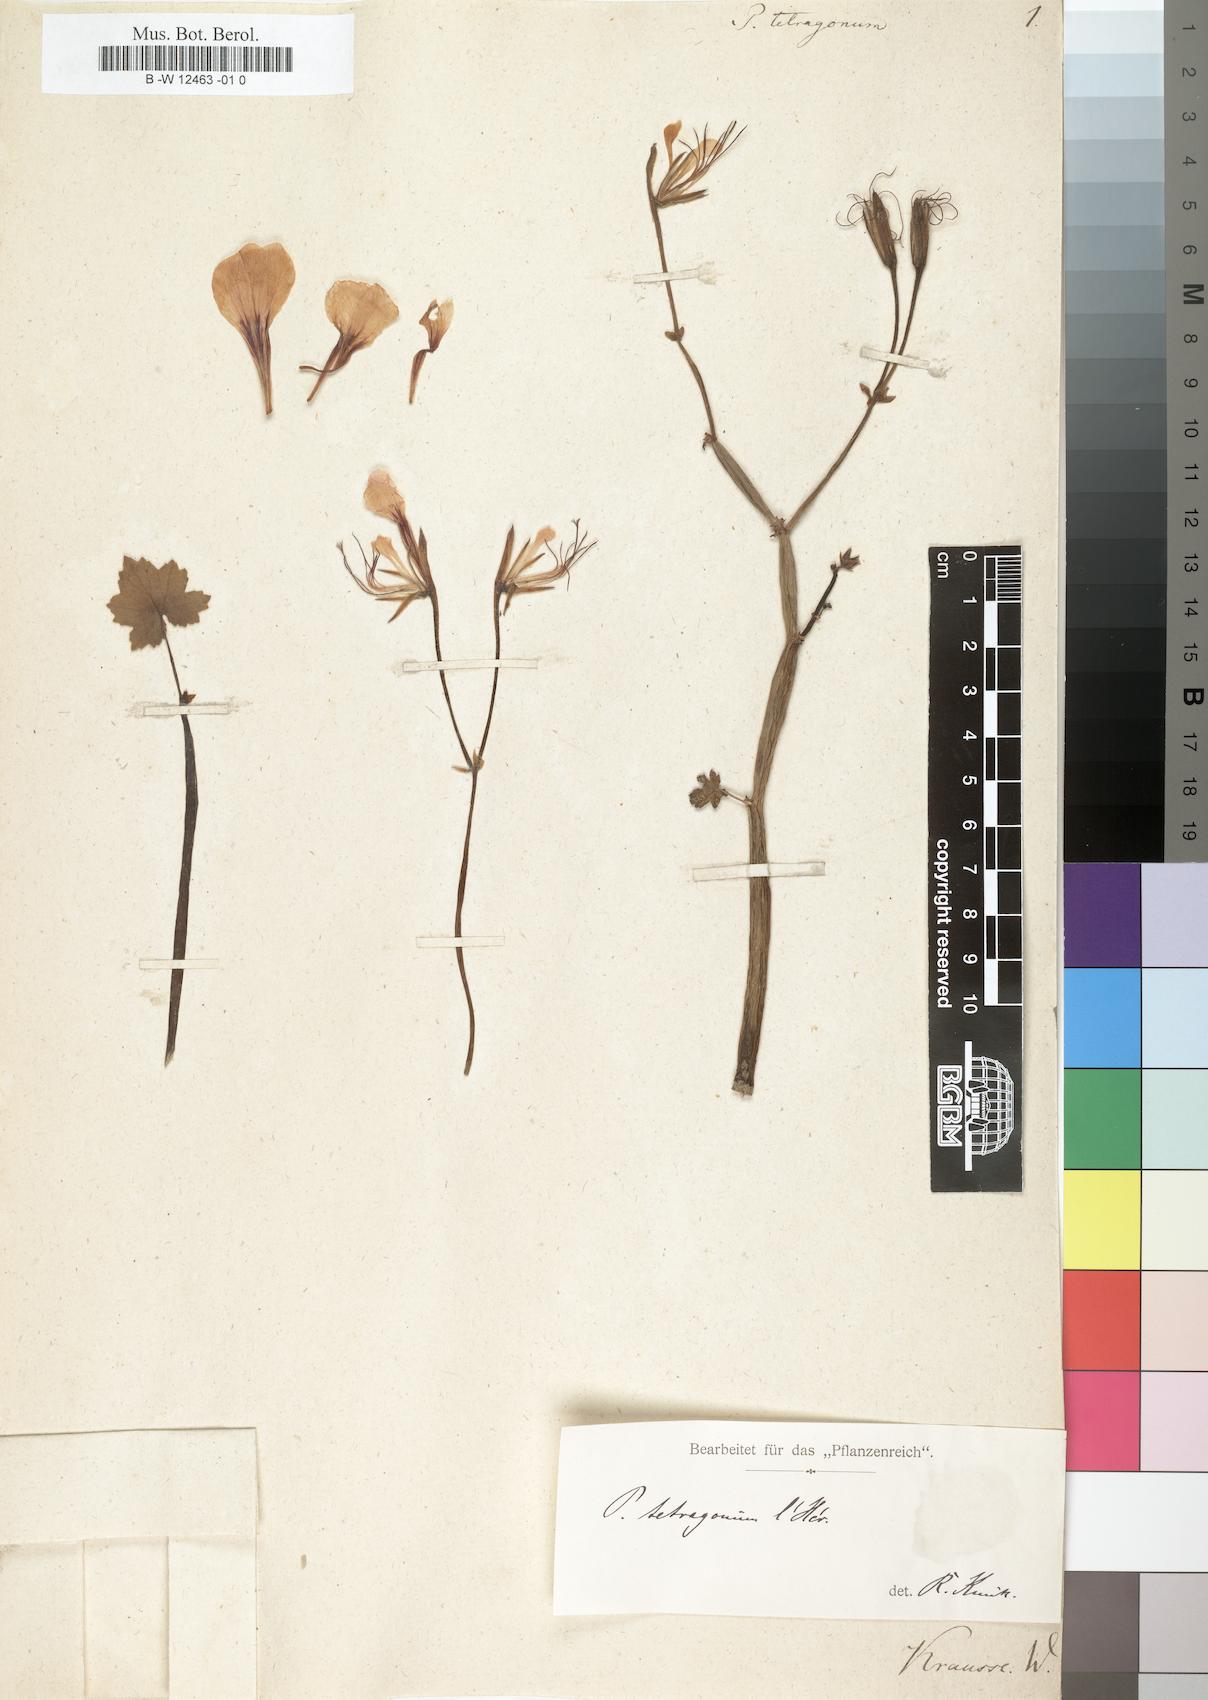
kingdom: Plantae
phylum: Tracheophyta
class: Magnoliopsida
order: Geraniales
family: Geraniaceae
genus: Pelargonium
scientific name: Pelargonium tetragonum
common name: Square-stack crane's-bill
